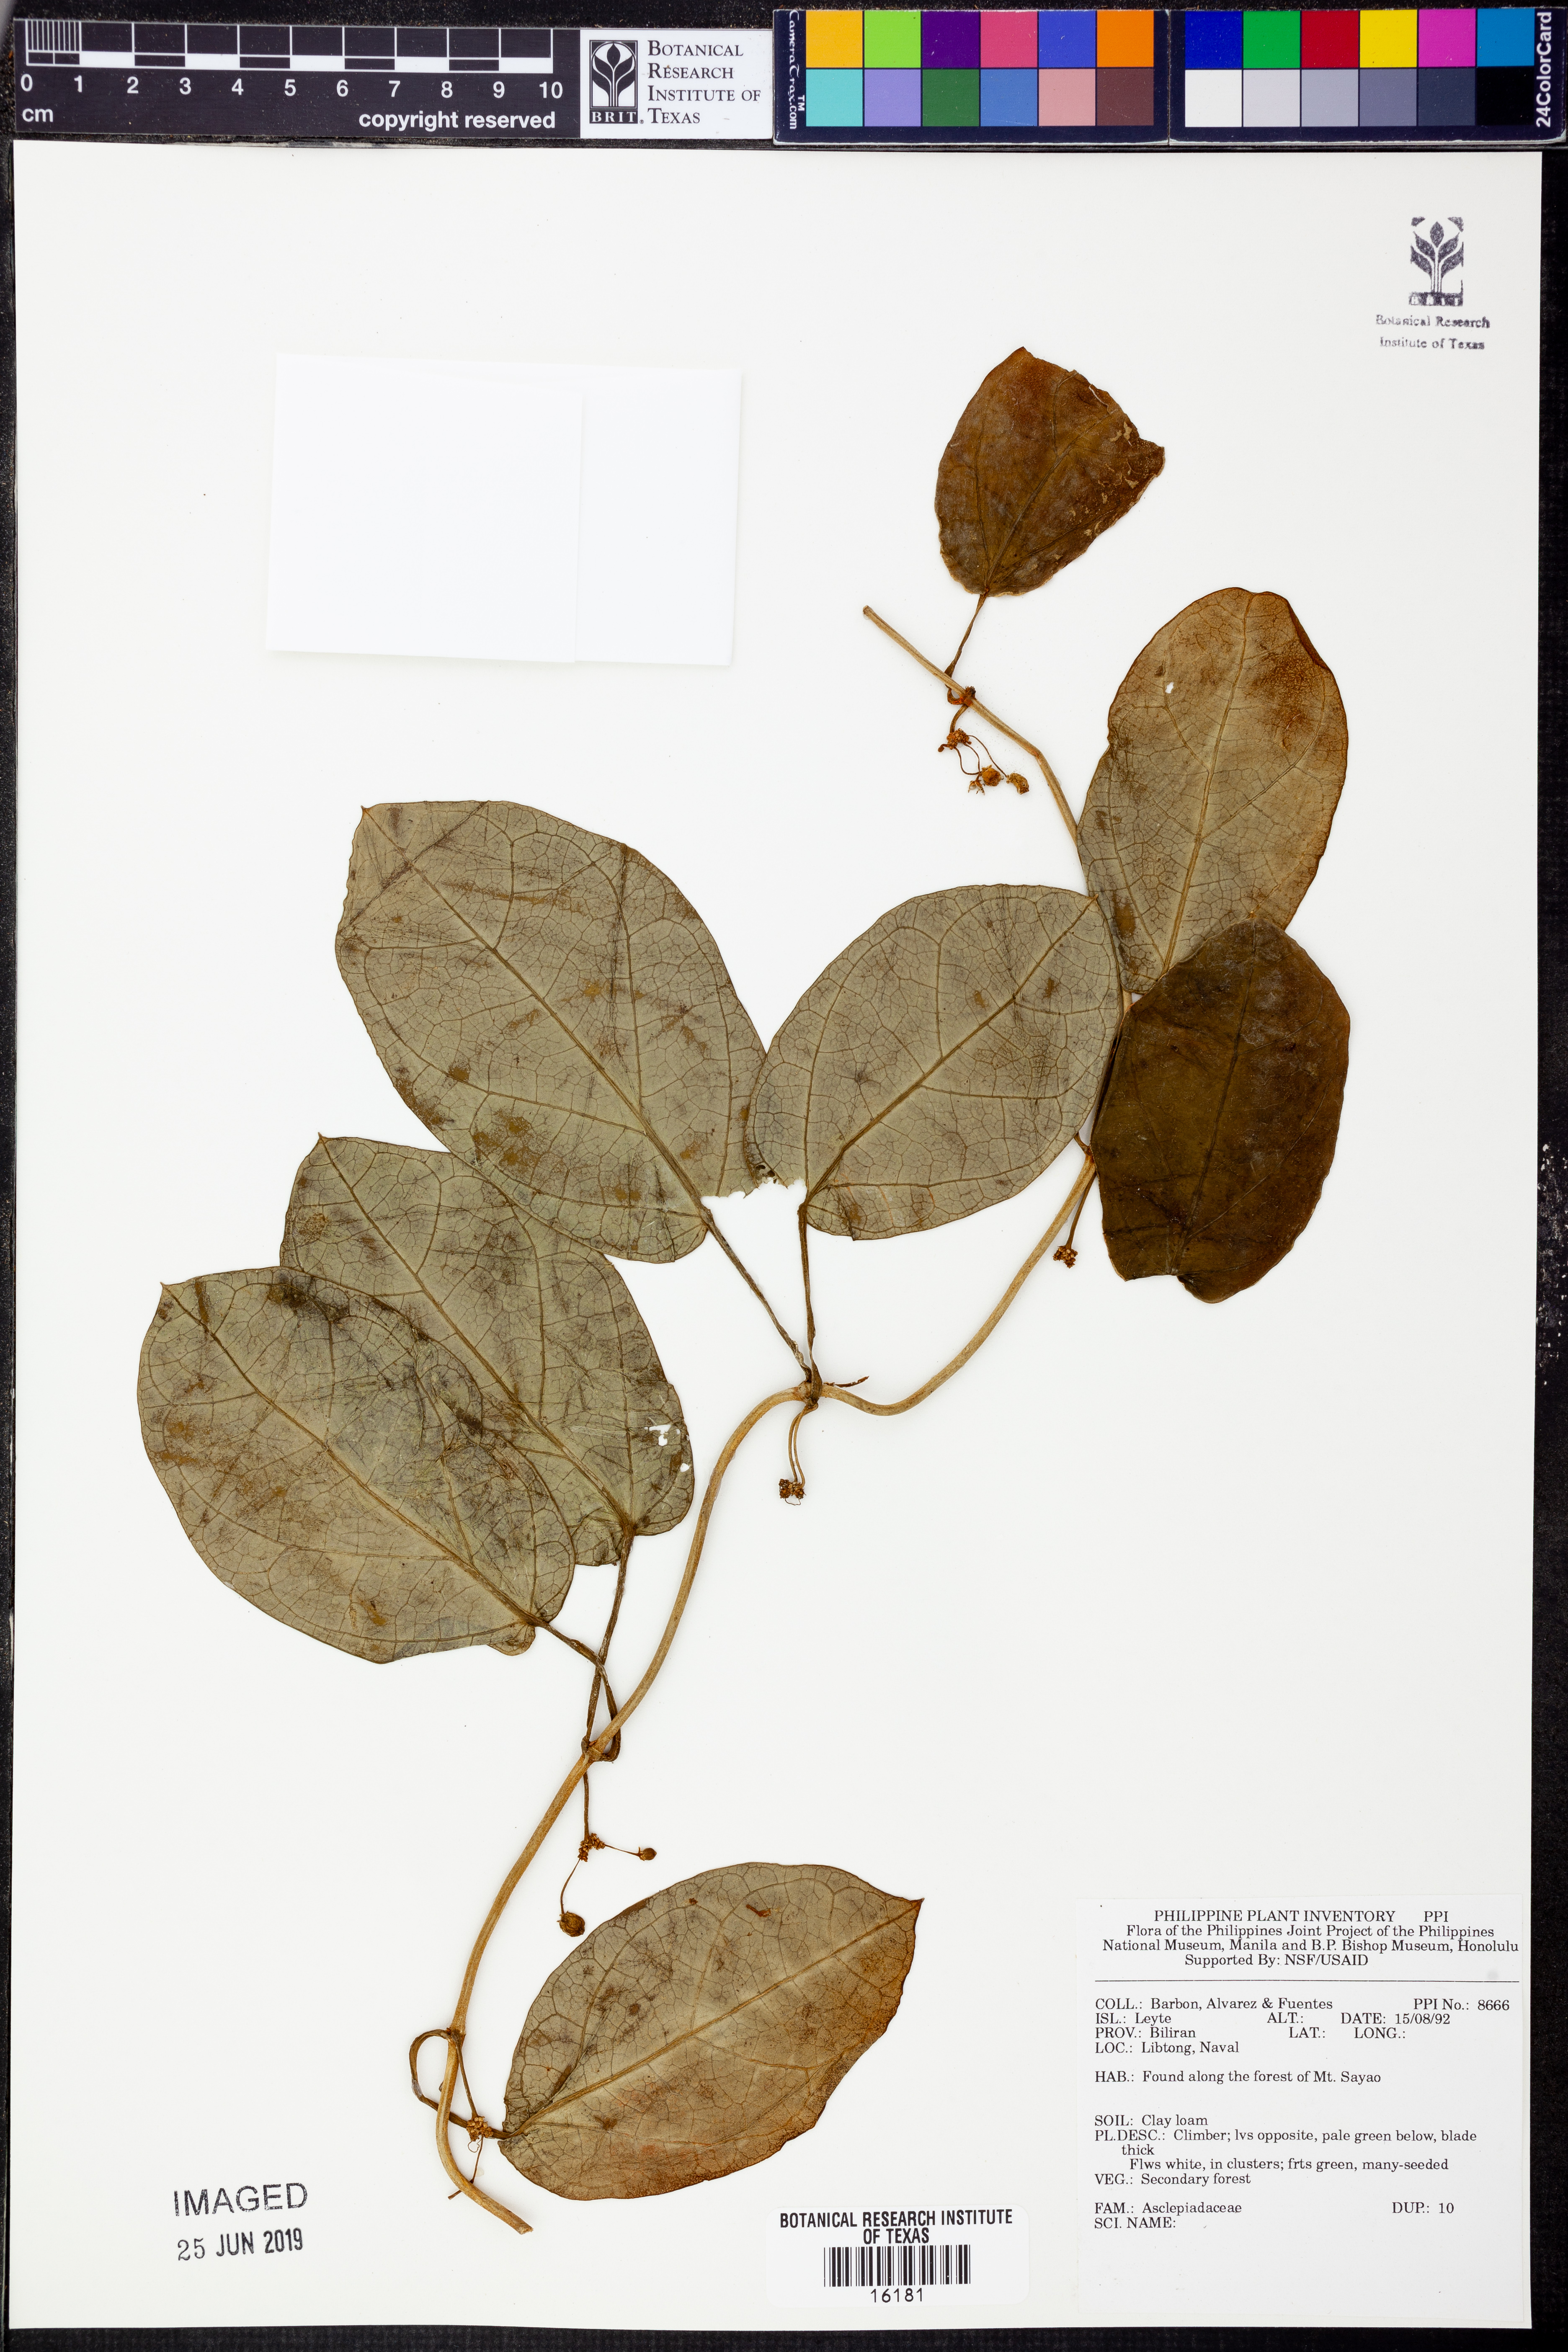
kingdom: Plantae
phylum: Tracheophyta
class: Magnoliopsida
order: Gentianales
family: Apocynaceae
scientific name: Apocynaceae
